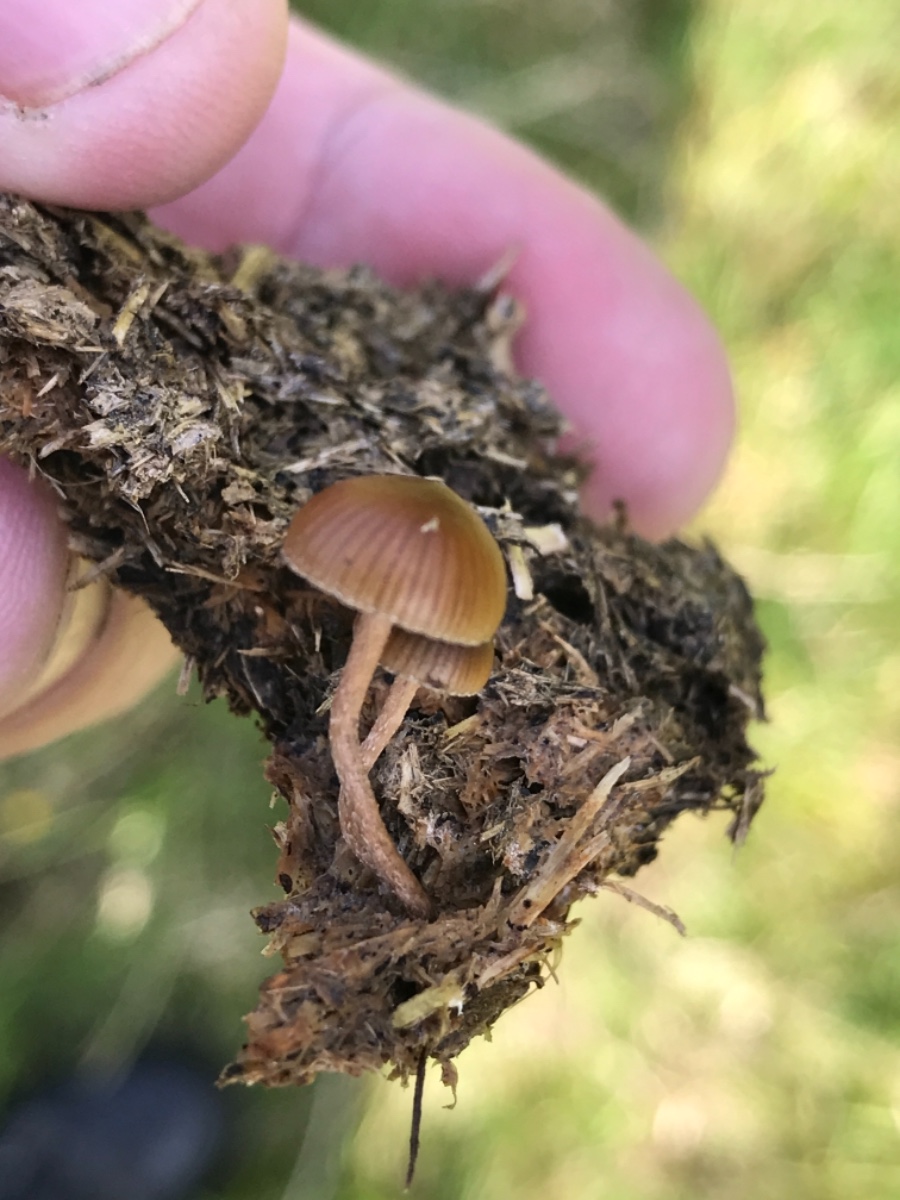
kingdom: Fungi
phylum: Basidiomycota
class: Agaricomycetes
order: Agaricales
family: Strophariaceae
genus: Deconica
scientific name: Deconica
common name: stråhat
